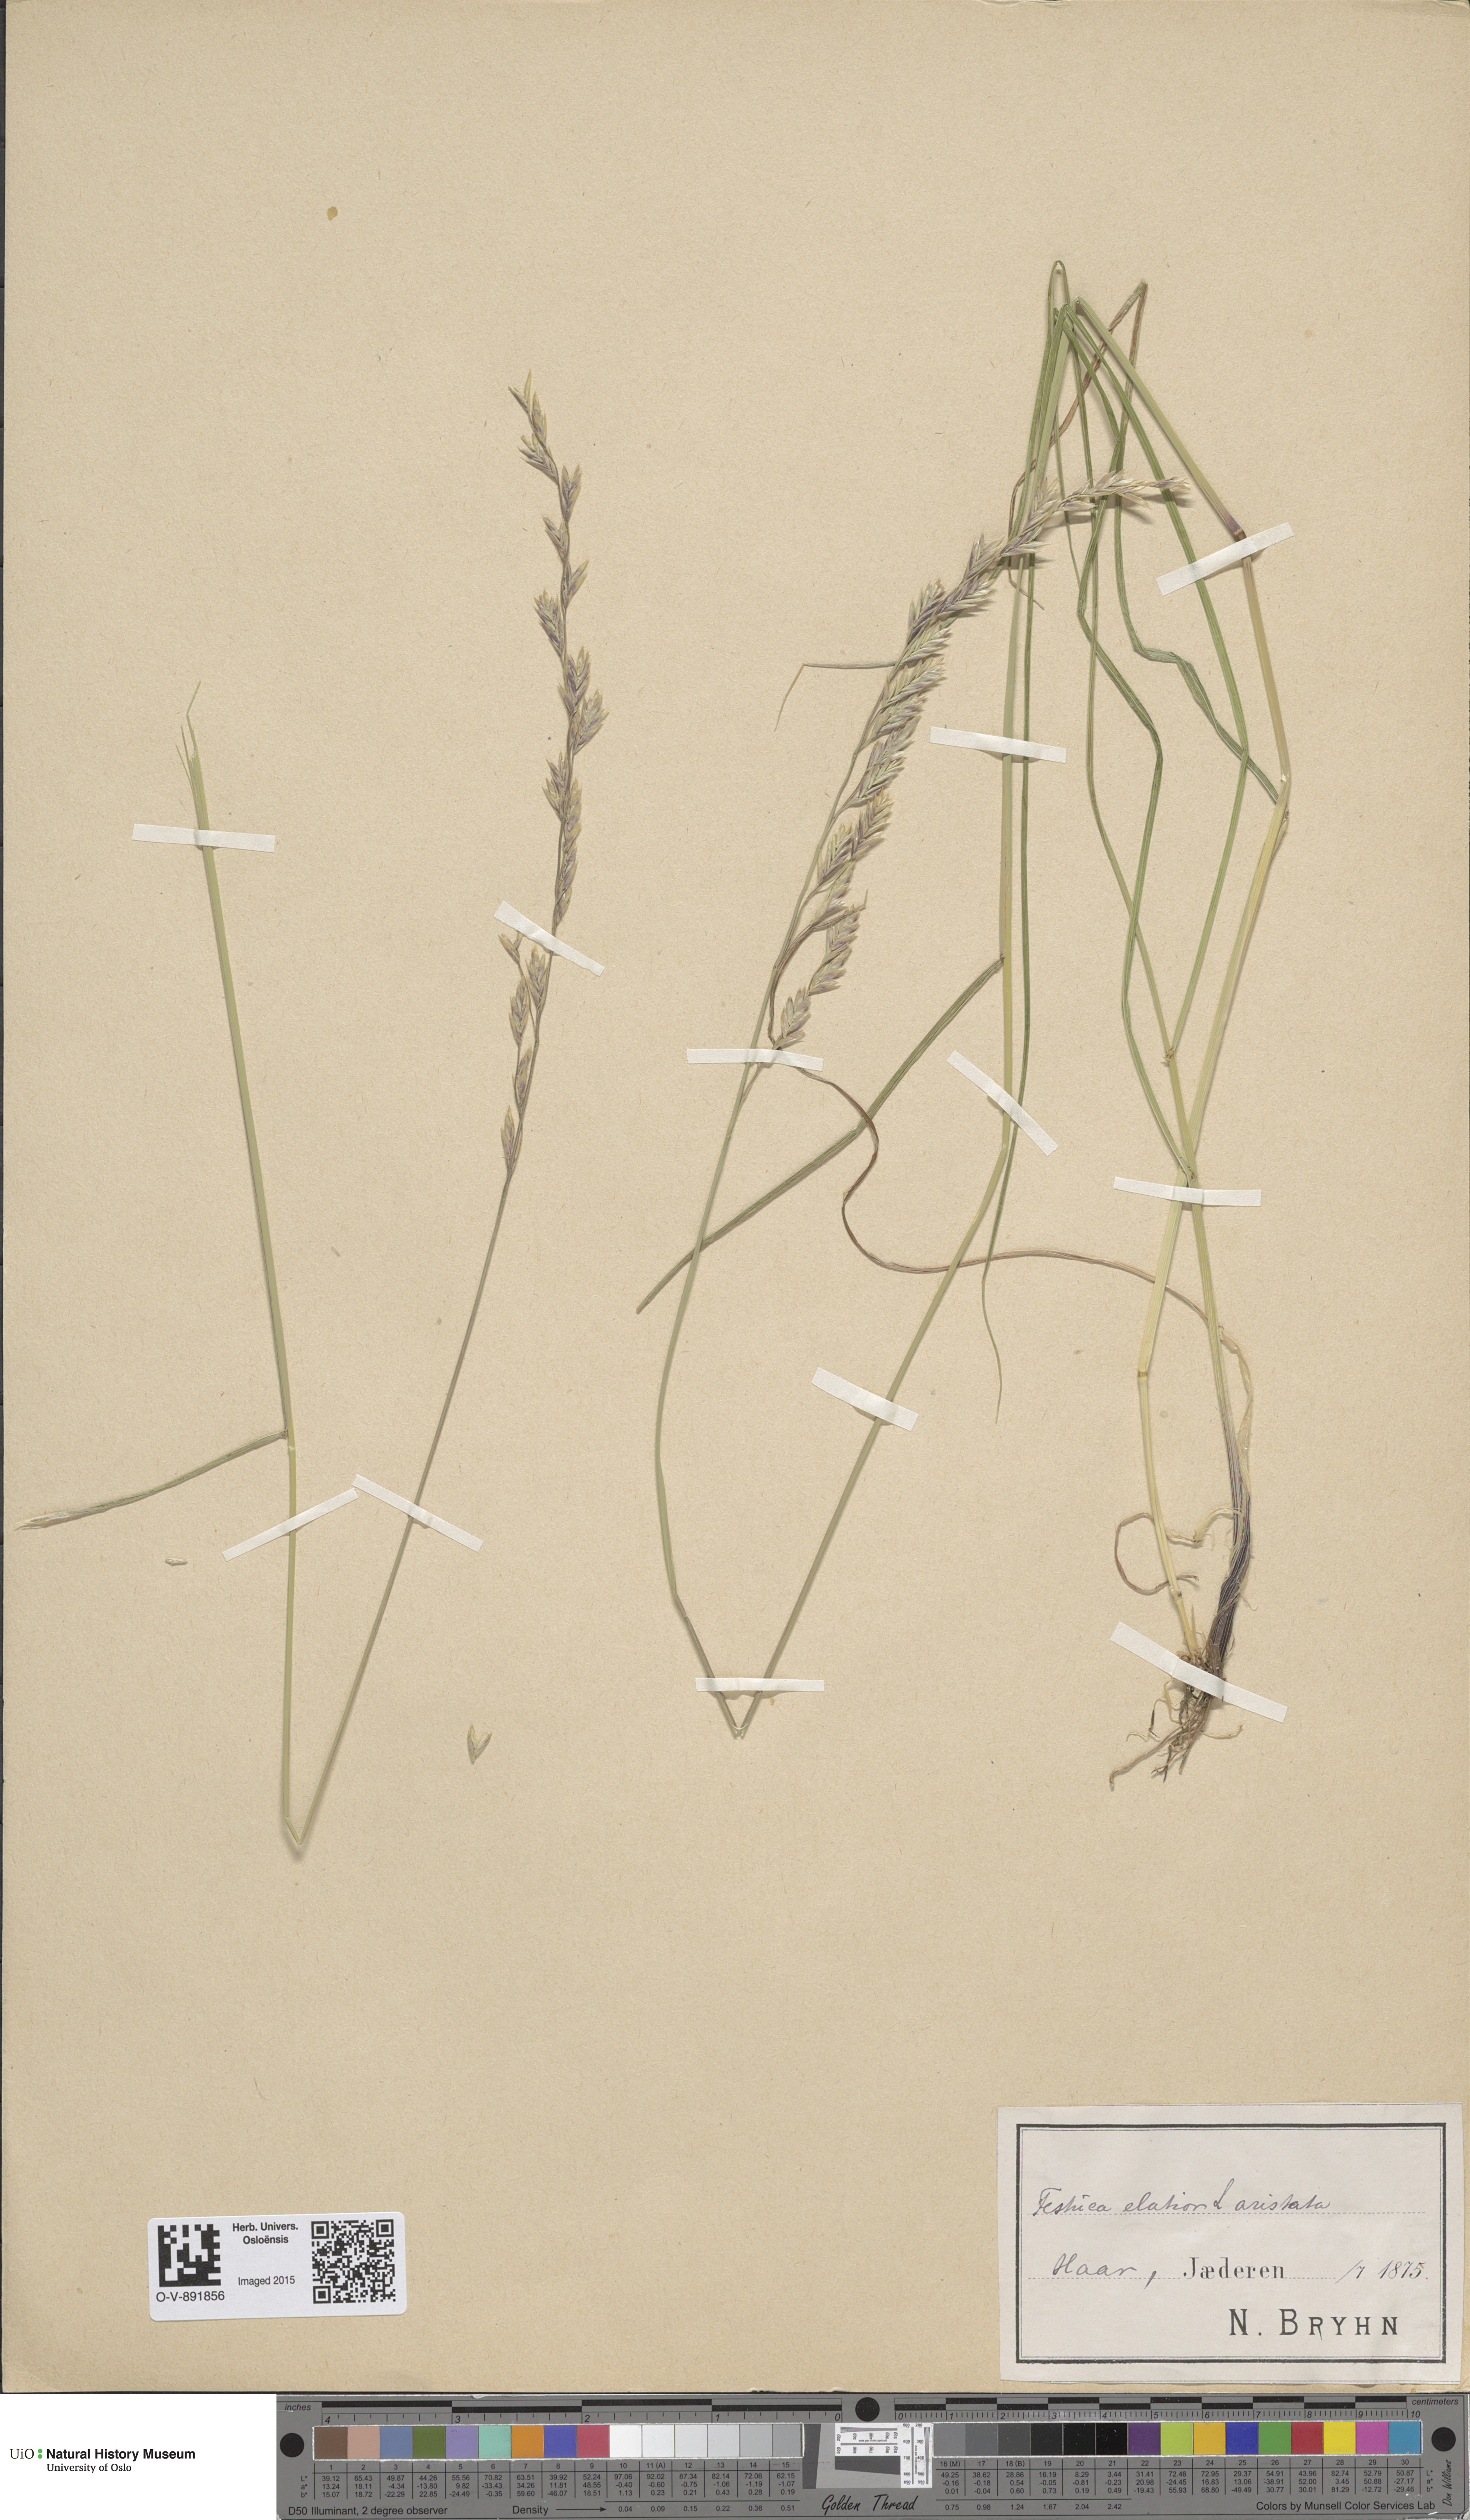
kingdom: Plantae
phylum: Tracheophyta
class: Liliopsida
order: Poales
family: Poaceae
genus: Lolium
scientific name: Lolium arundinaceum
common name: Reed fescue
